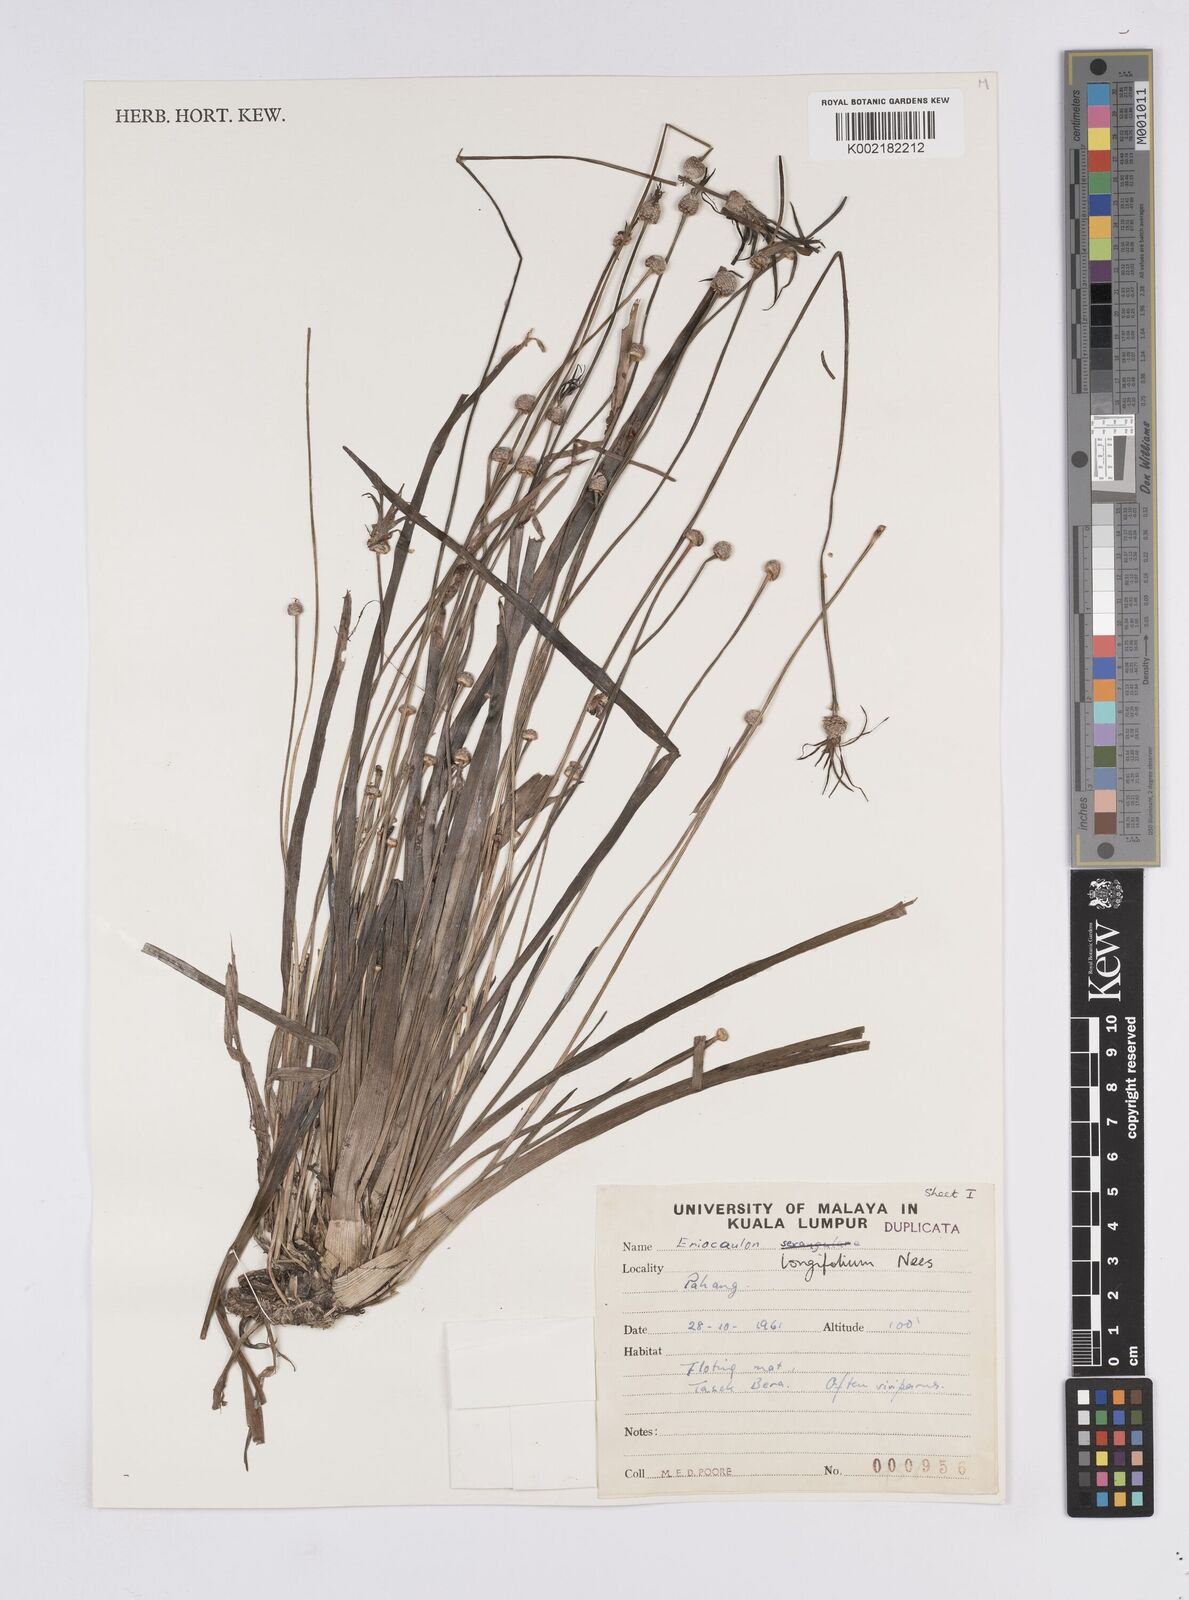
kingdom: Plantae
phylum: Tracheophyta
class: Liliopsida
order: Poales
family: Eriocaulaceae
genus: Eriocaulon
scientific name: Eriocaulon willdenovianum
